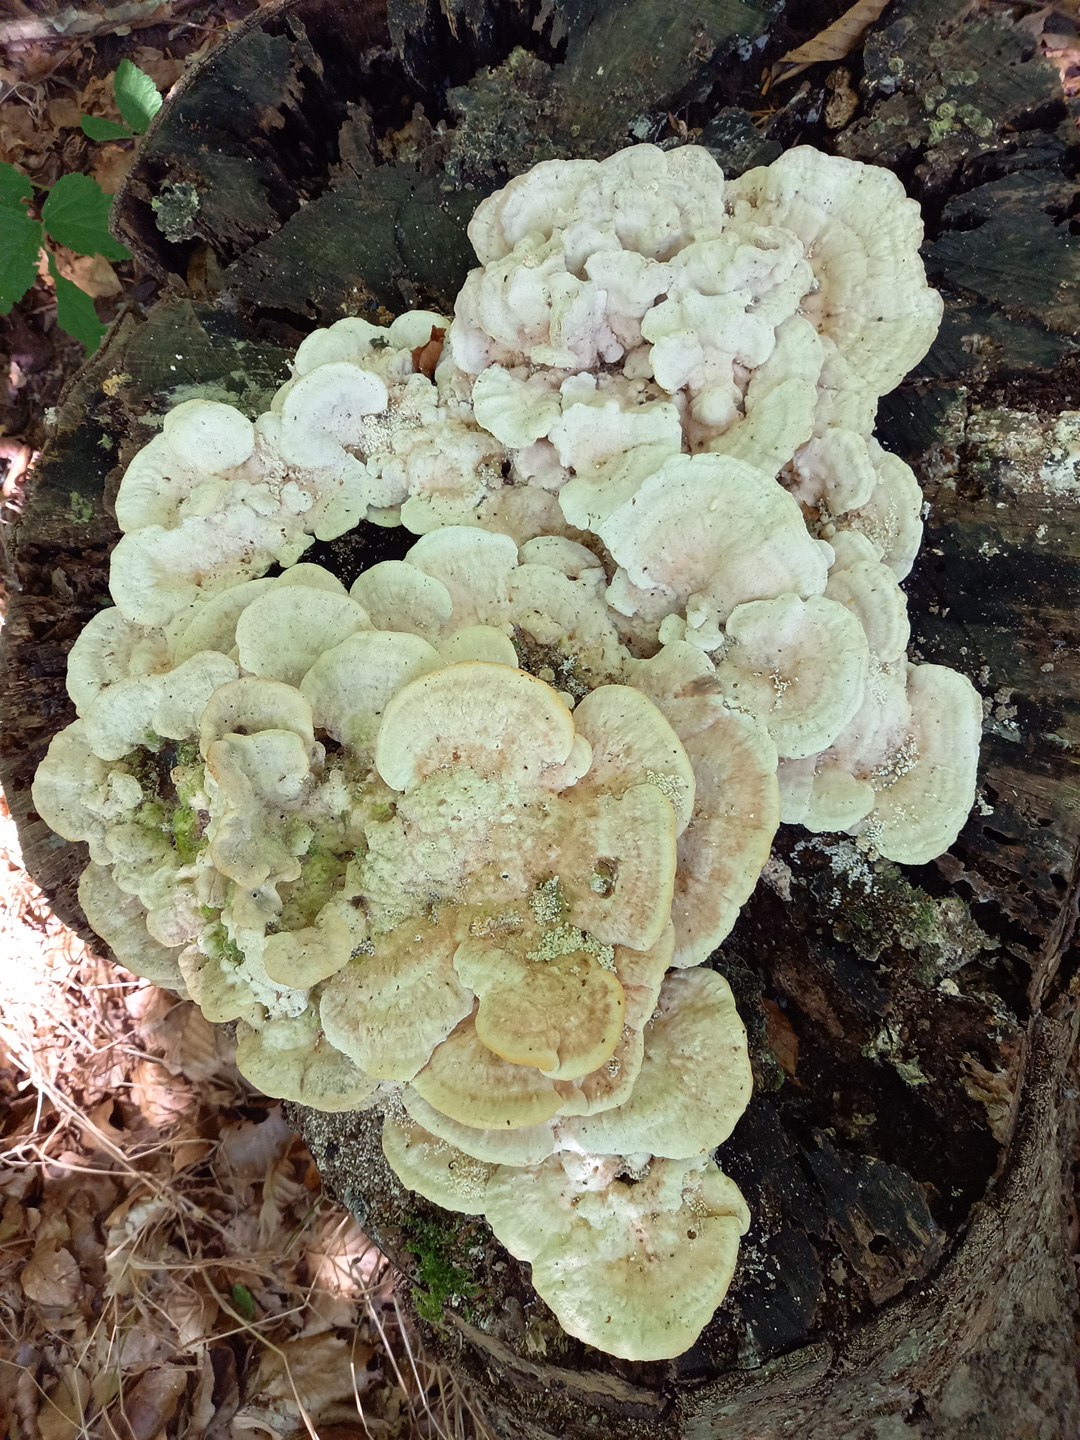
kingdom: Fungi
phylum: Basidiomycota
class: Agaricomycetes
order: Polyporales
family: Polyporaceae
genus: Trametes
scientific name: Trametes gibbosa
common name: puklet læderporesvamp
